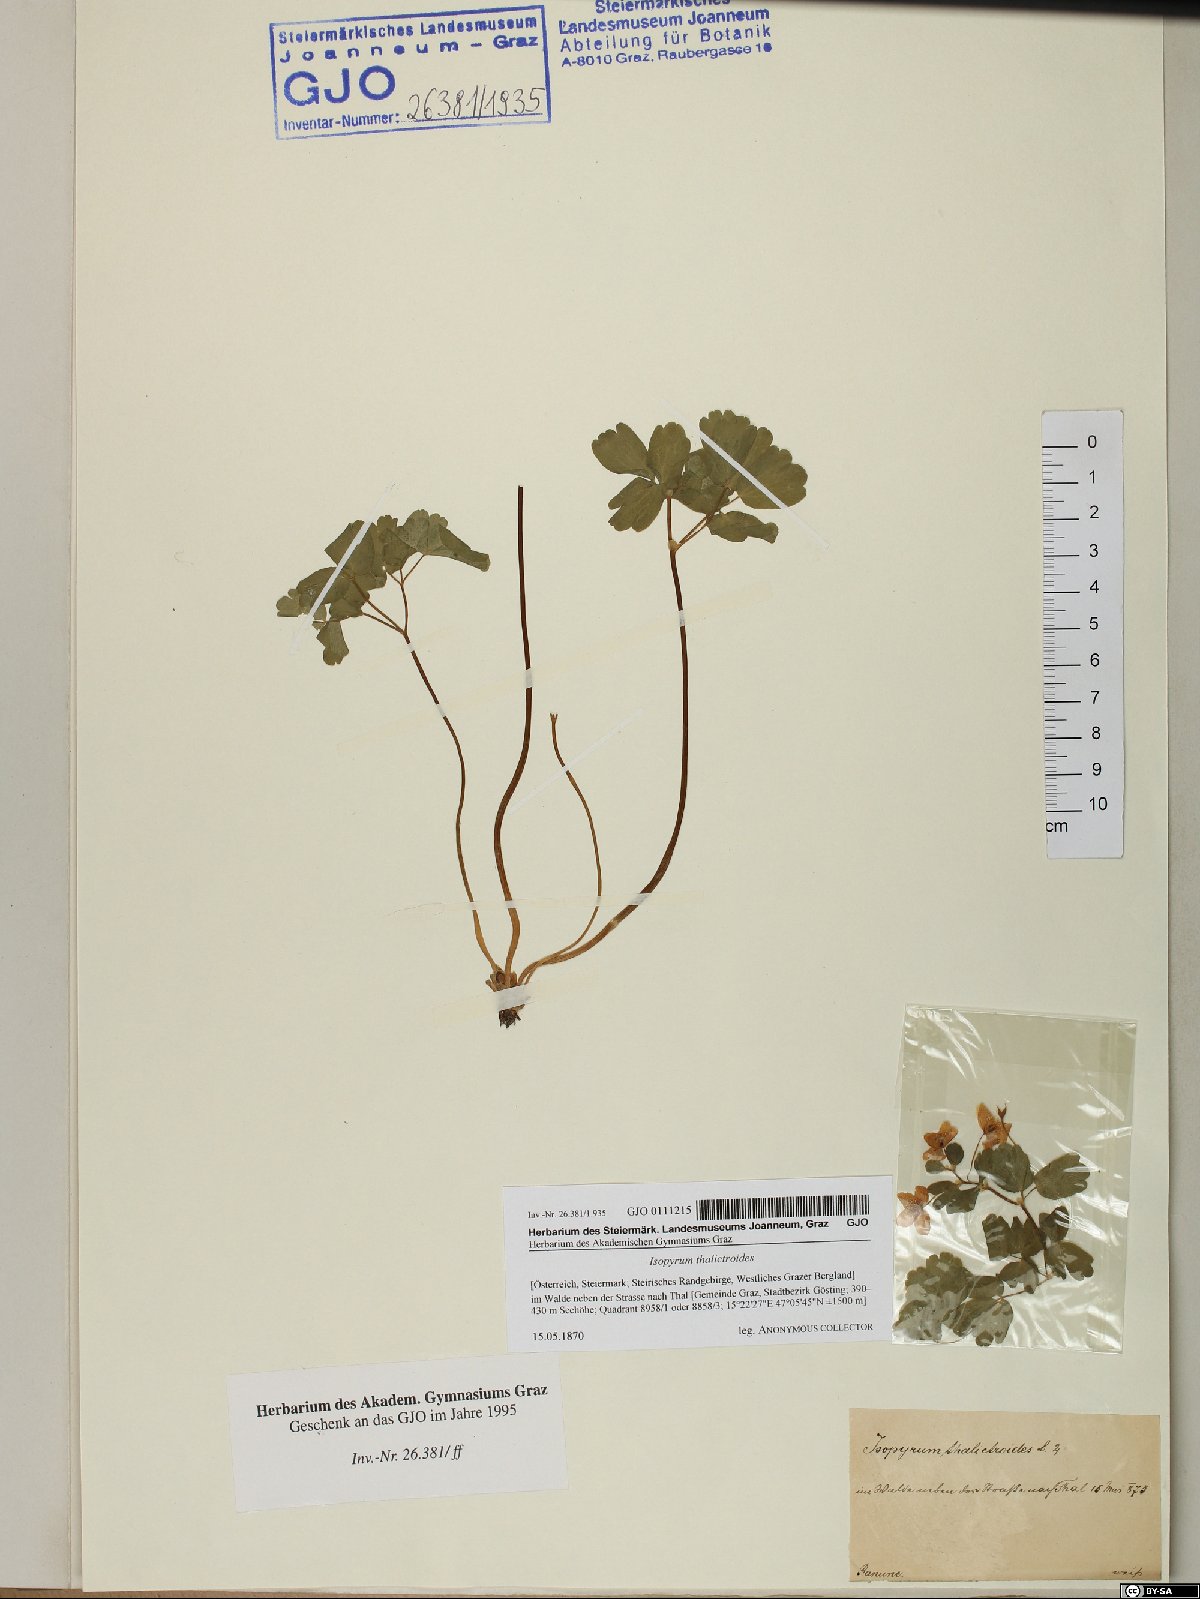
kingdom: Plantae
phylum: Tracheophyta
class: Magnoliopsida
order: Ranunculales
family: Ranunculaceae
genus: Isopyrum
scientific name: Isopyrum thalictroides
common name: Isopyrum
